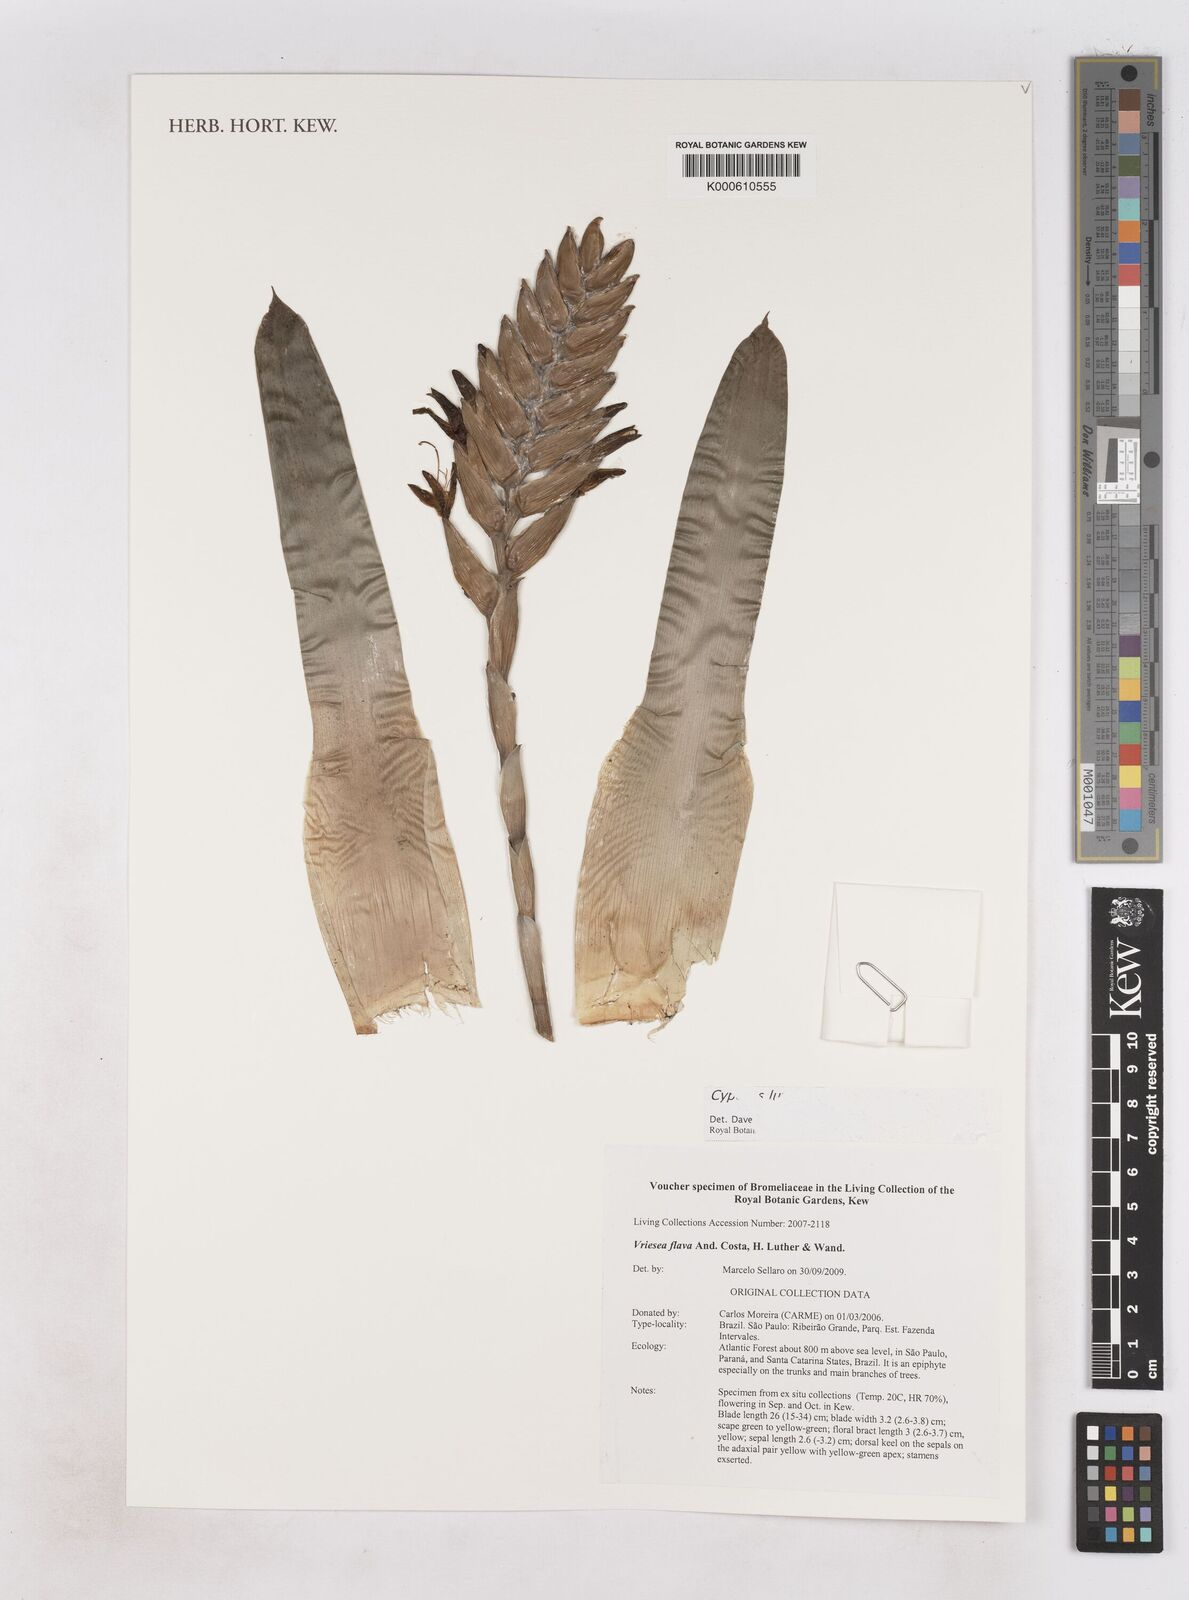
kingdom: Plantae
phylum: Tracheophyta
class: Liliopsida
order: Poales
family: Cyperaceae
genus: Cyperus
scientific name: Cyperus luzulae
